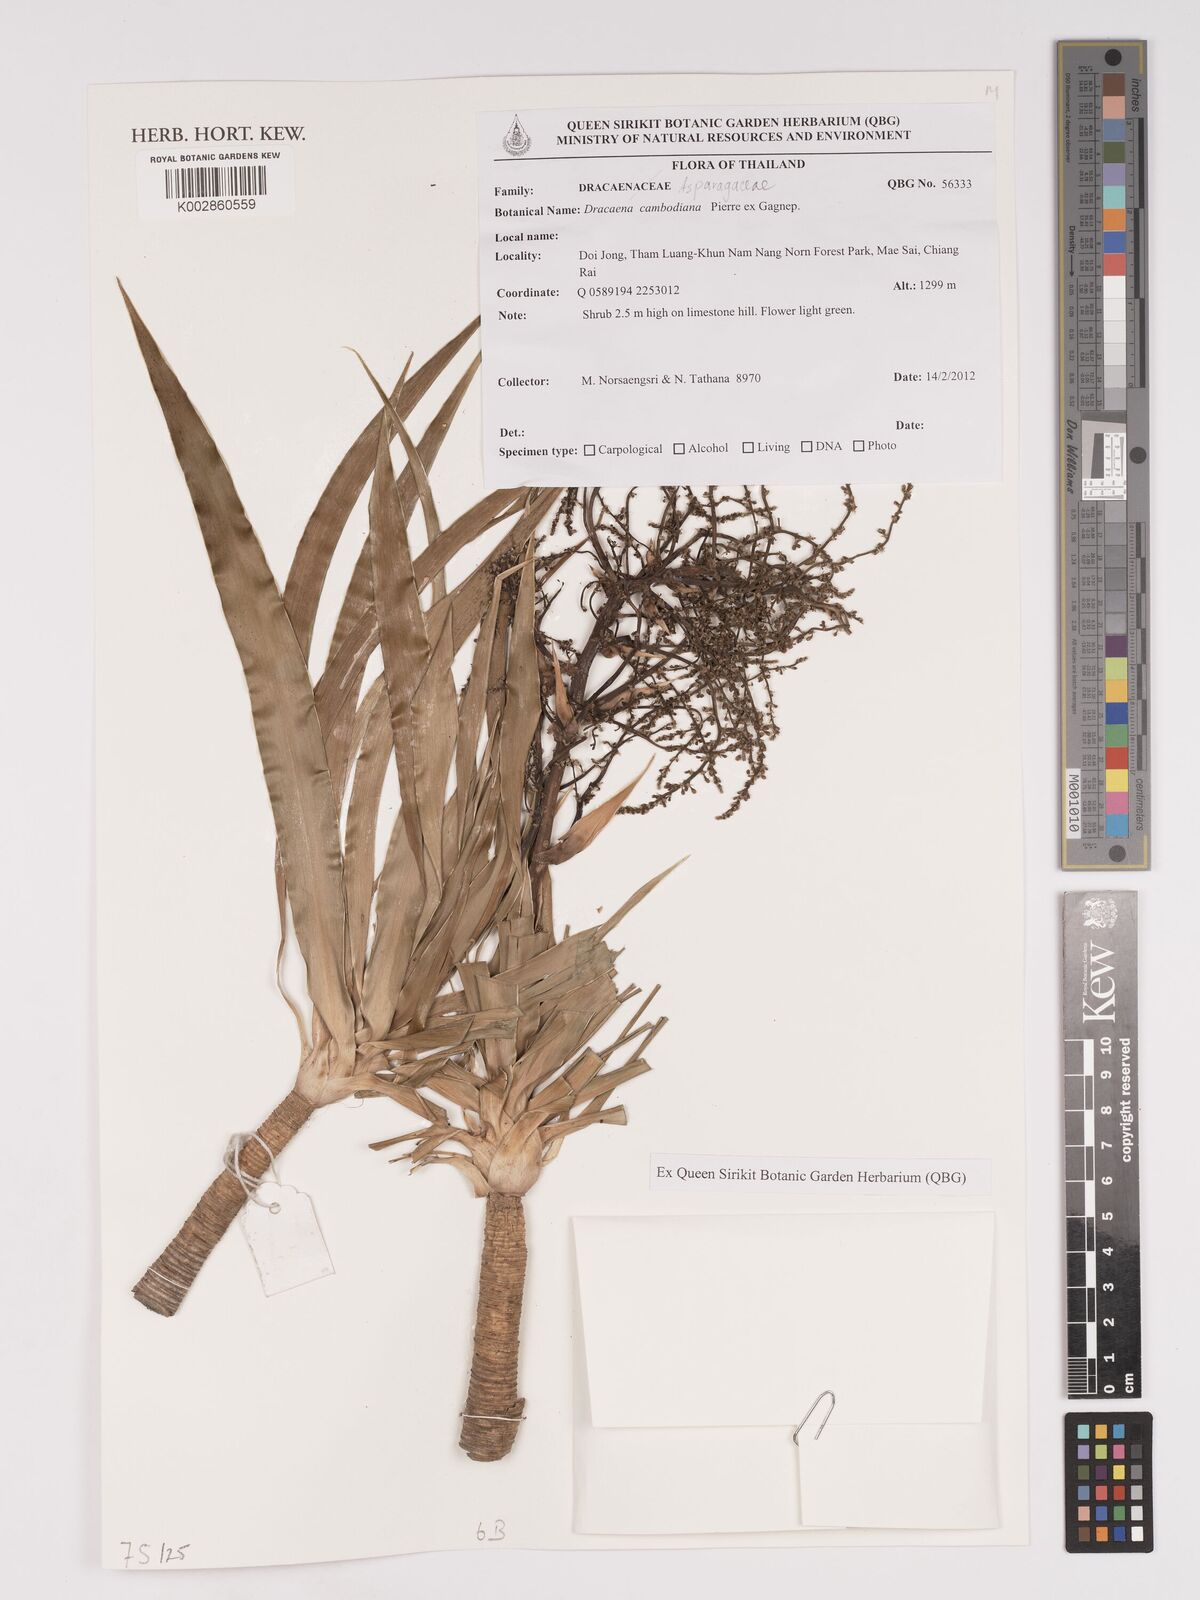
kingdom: Plantae
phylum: Tracheophyta
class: Liliopsida
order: Asparagales
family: Asparagaceae
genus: Dracaena
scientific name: Dracaena cambodiana
